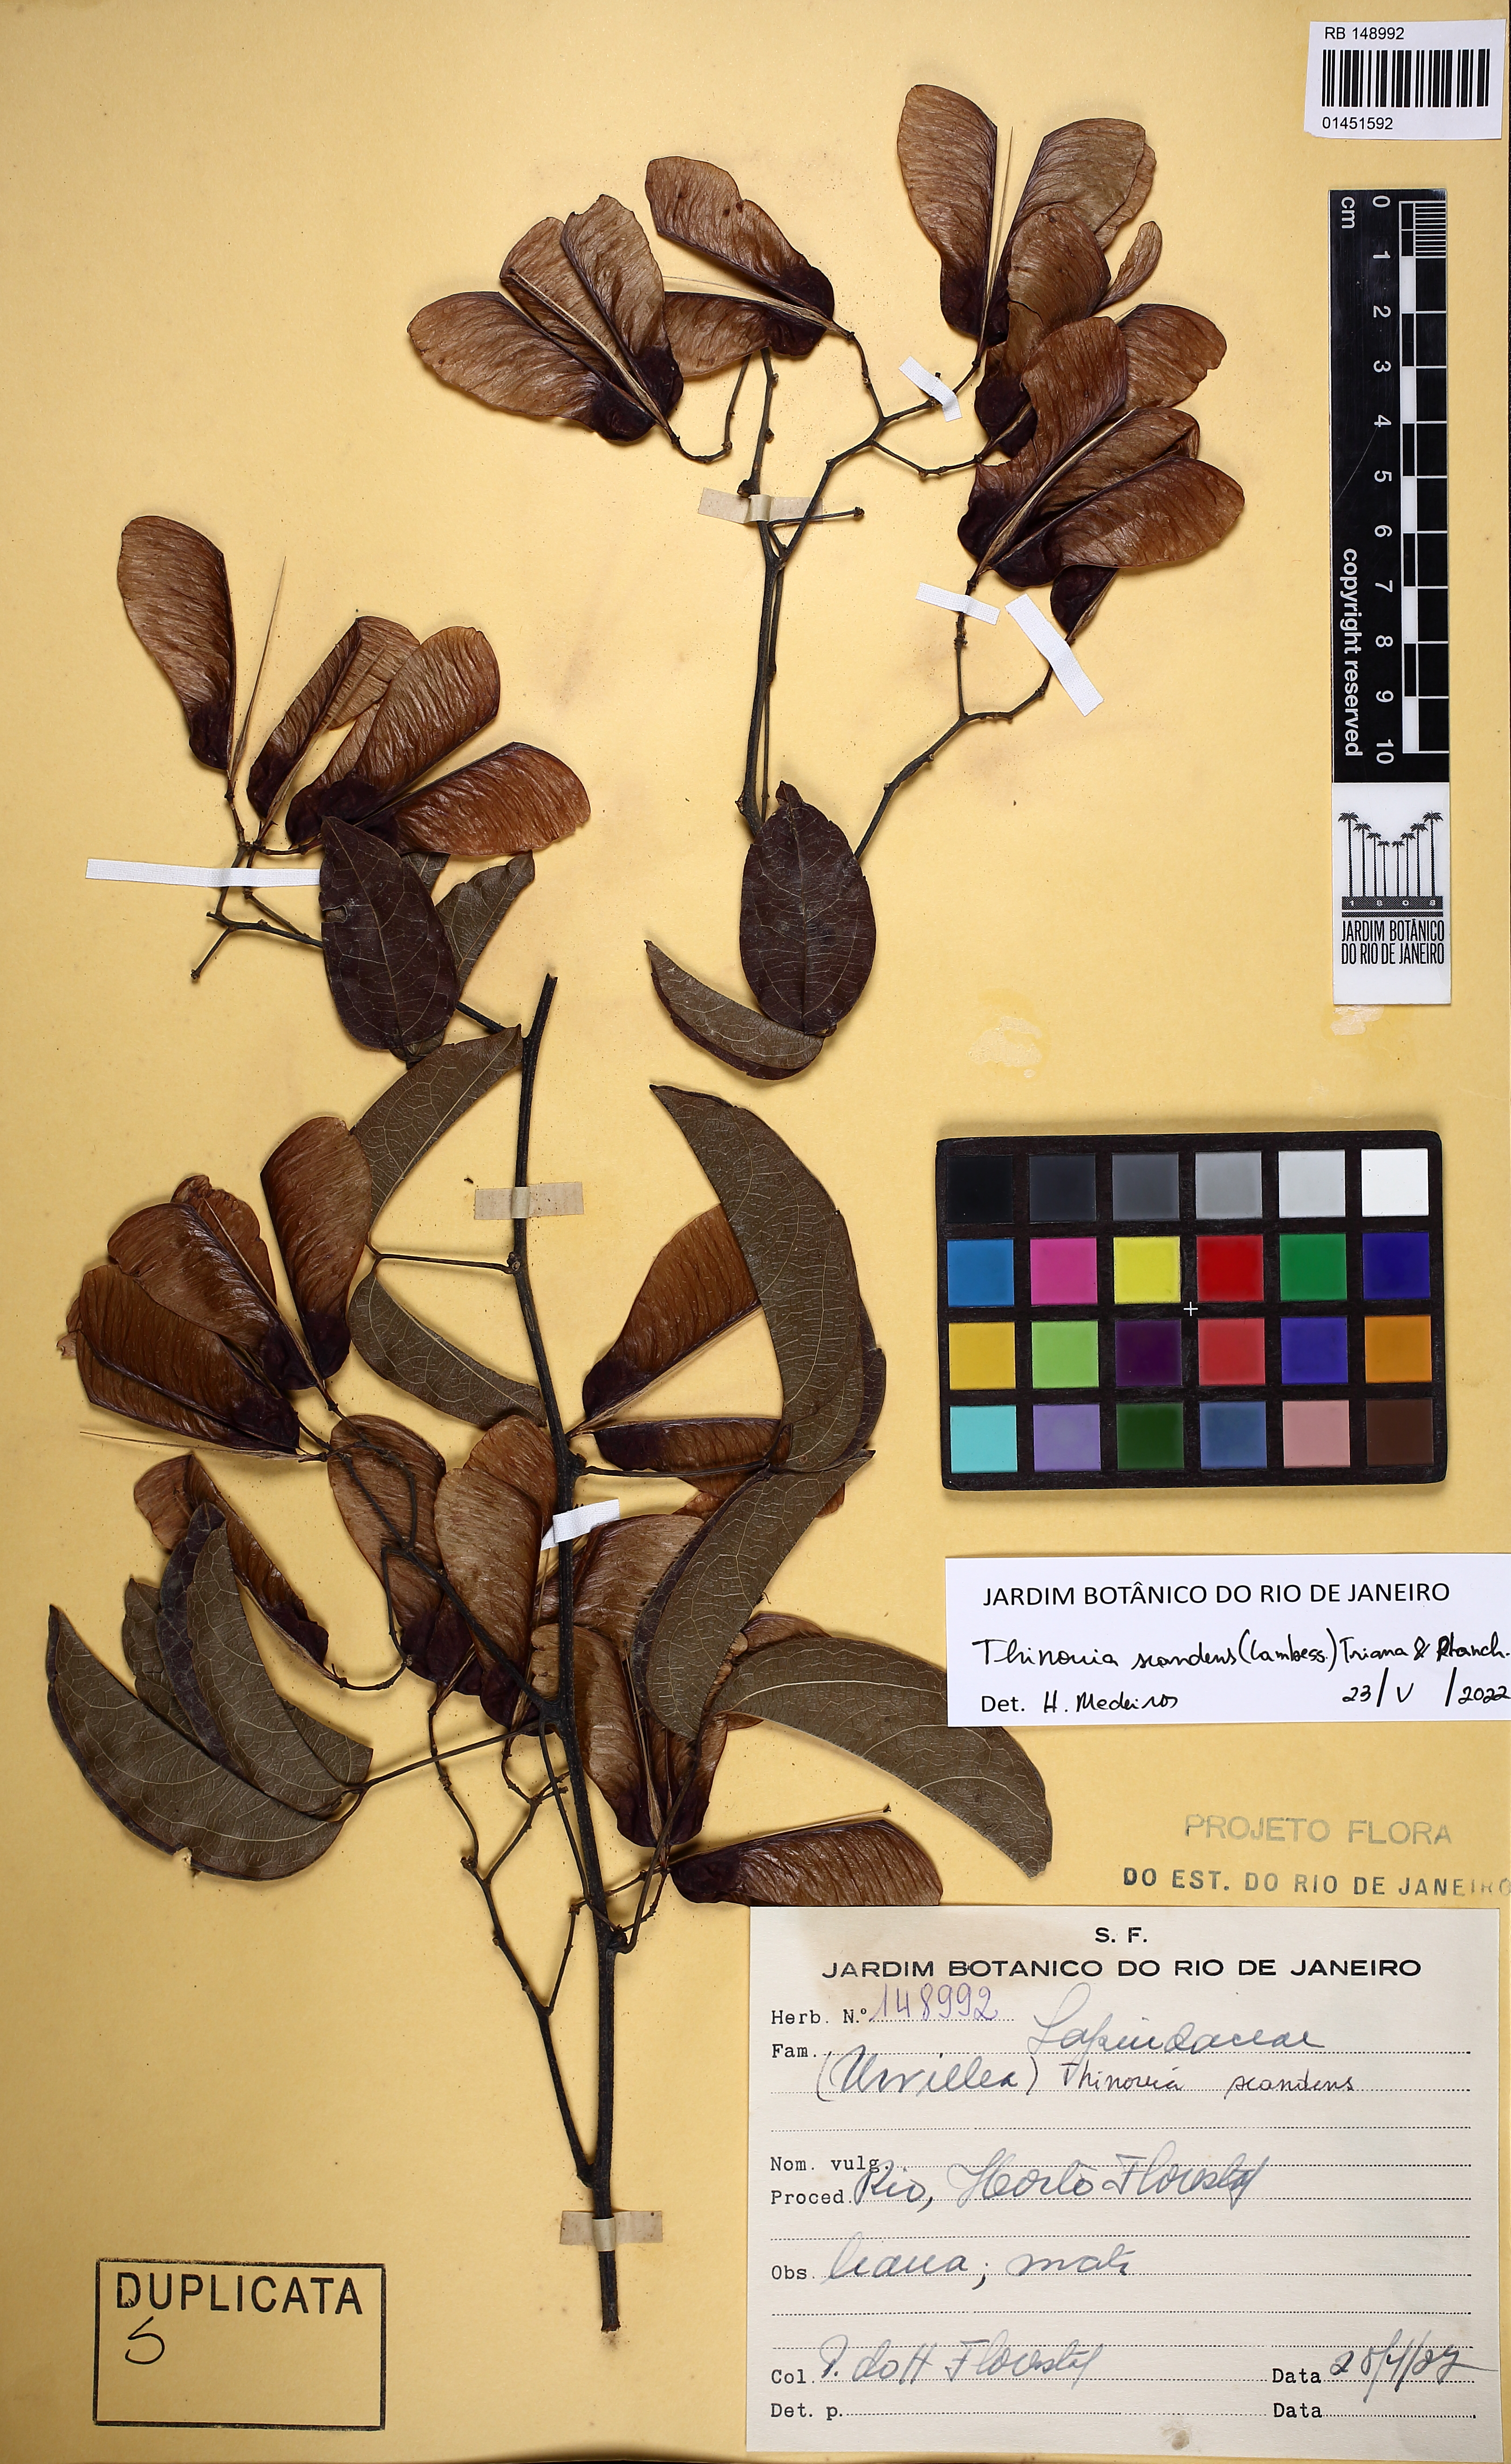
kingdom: Plantae
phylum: Tracheophyta
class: Magnoliopsida
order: Sapindales
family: Sapindaceae
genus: Thinouia
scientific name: Thinouia scandens
